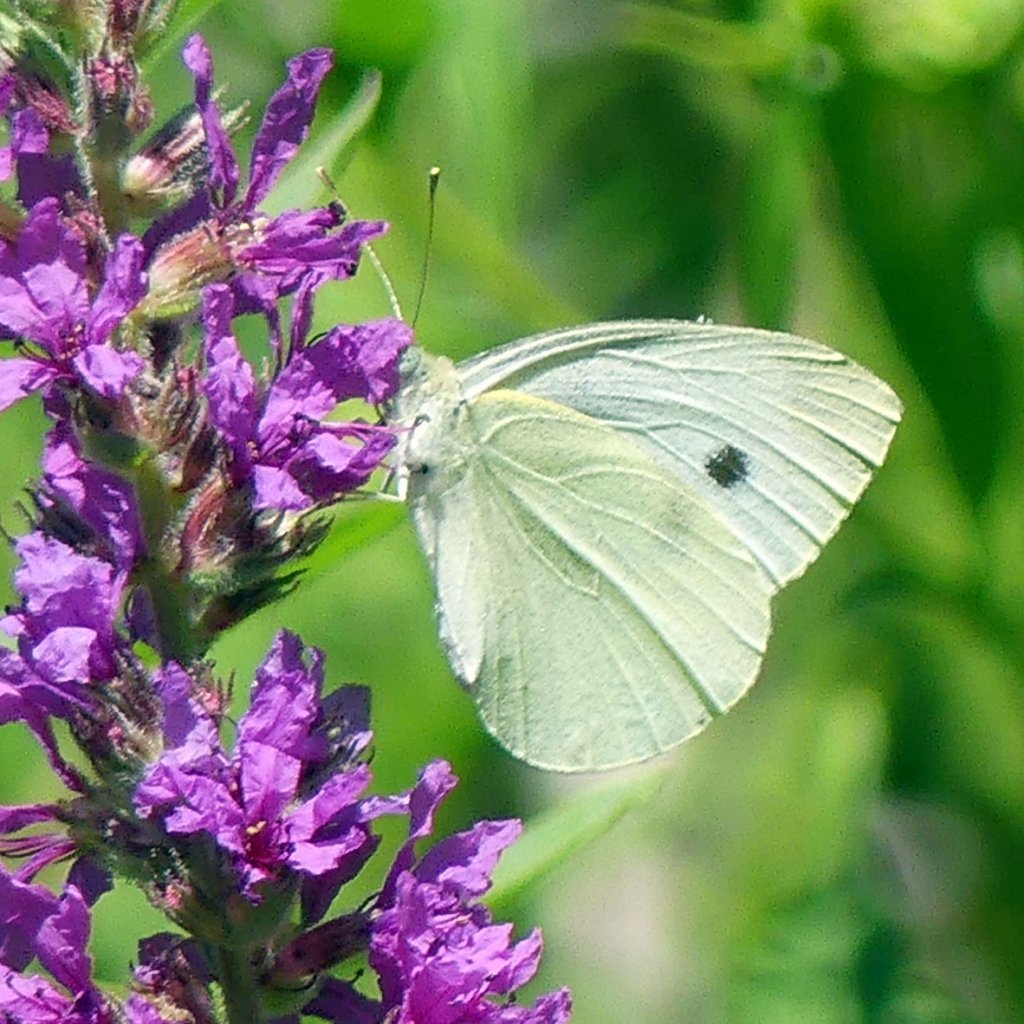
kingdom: Animalia
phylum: Arthropoda
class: Insecta
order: Lepidoptera
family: Pieridae
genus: Pieris
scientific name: Pieris rapae
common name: Cabbage White
